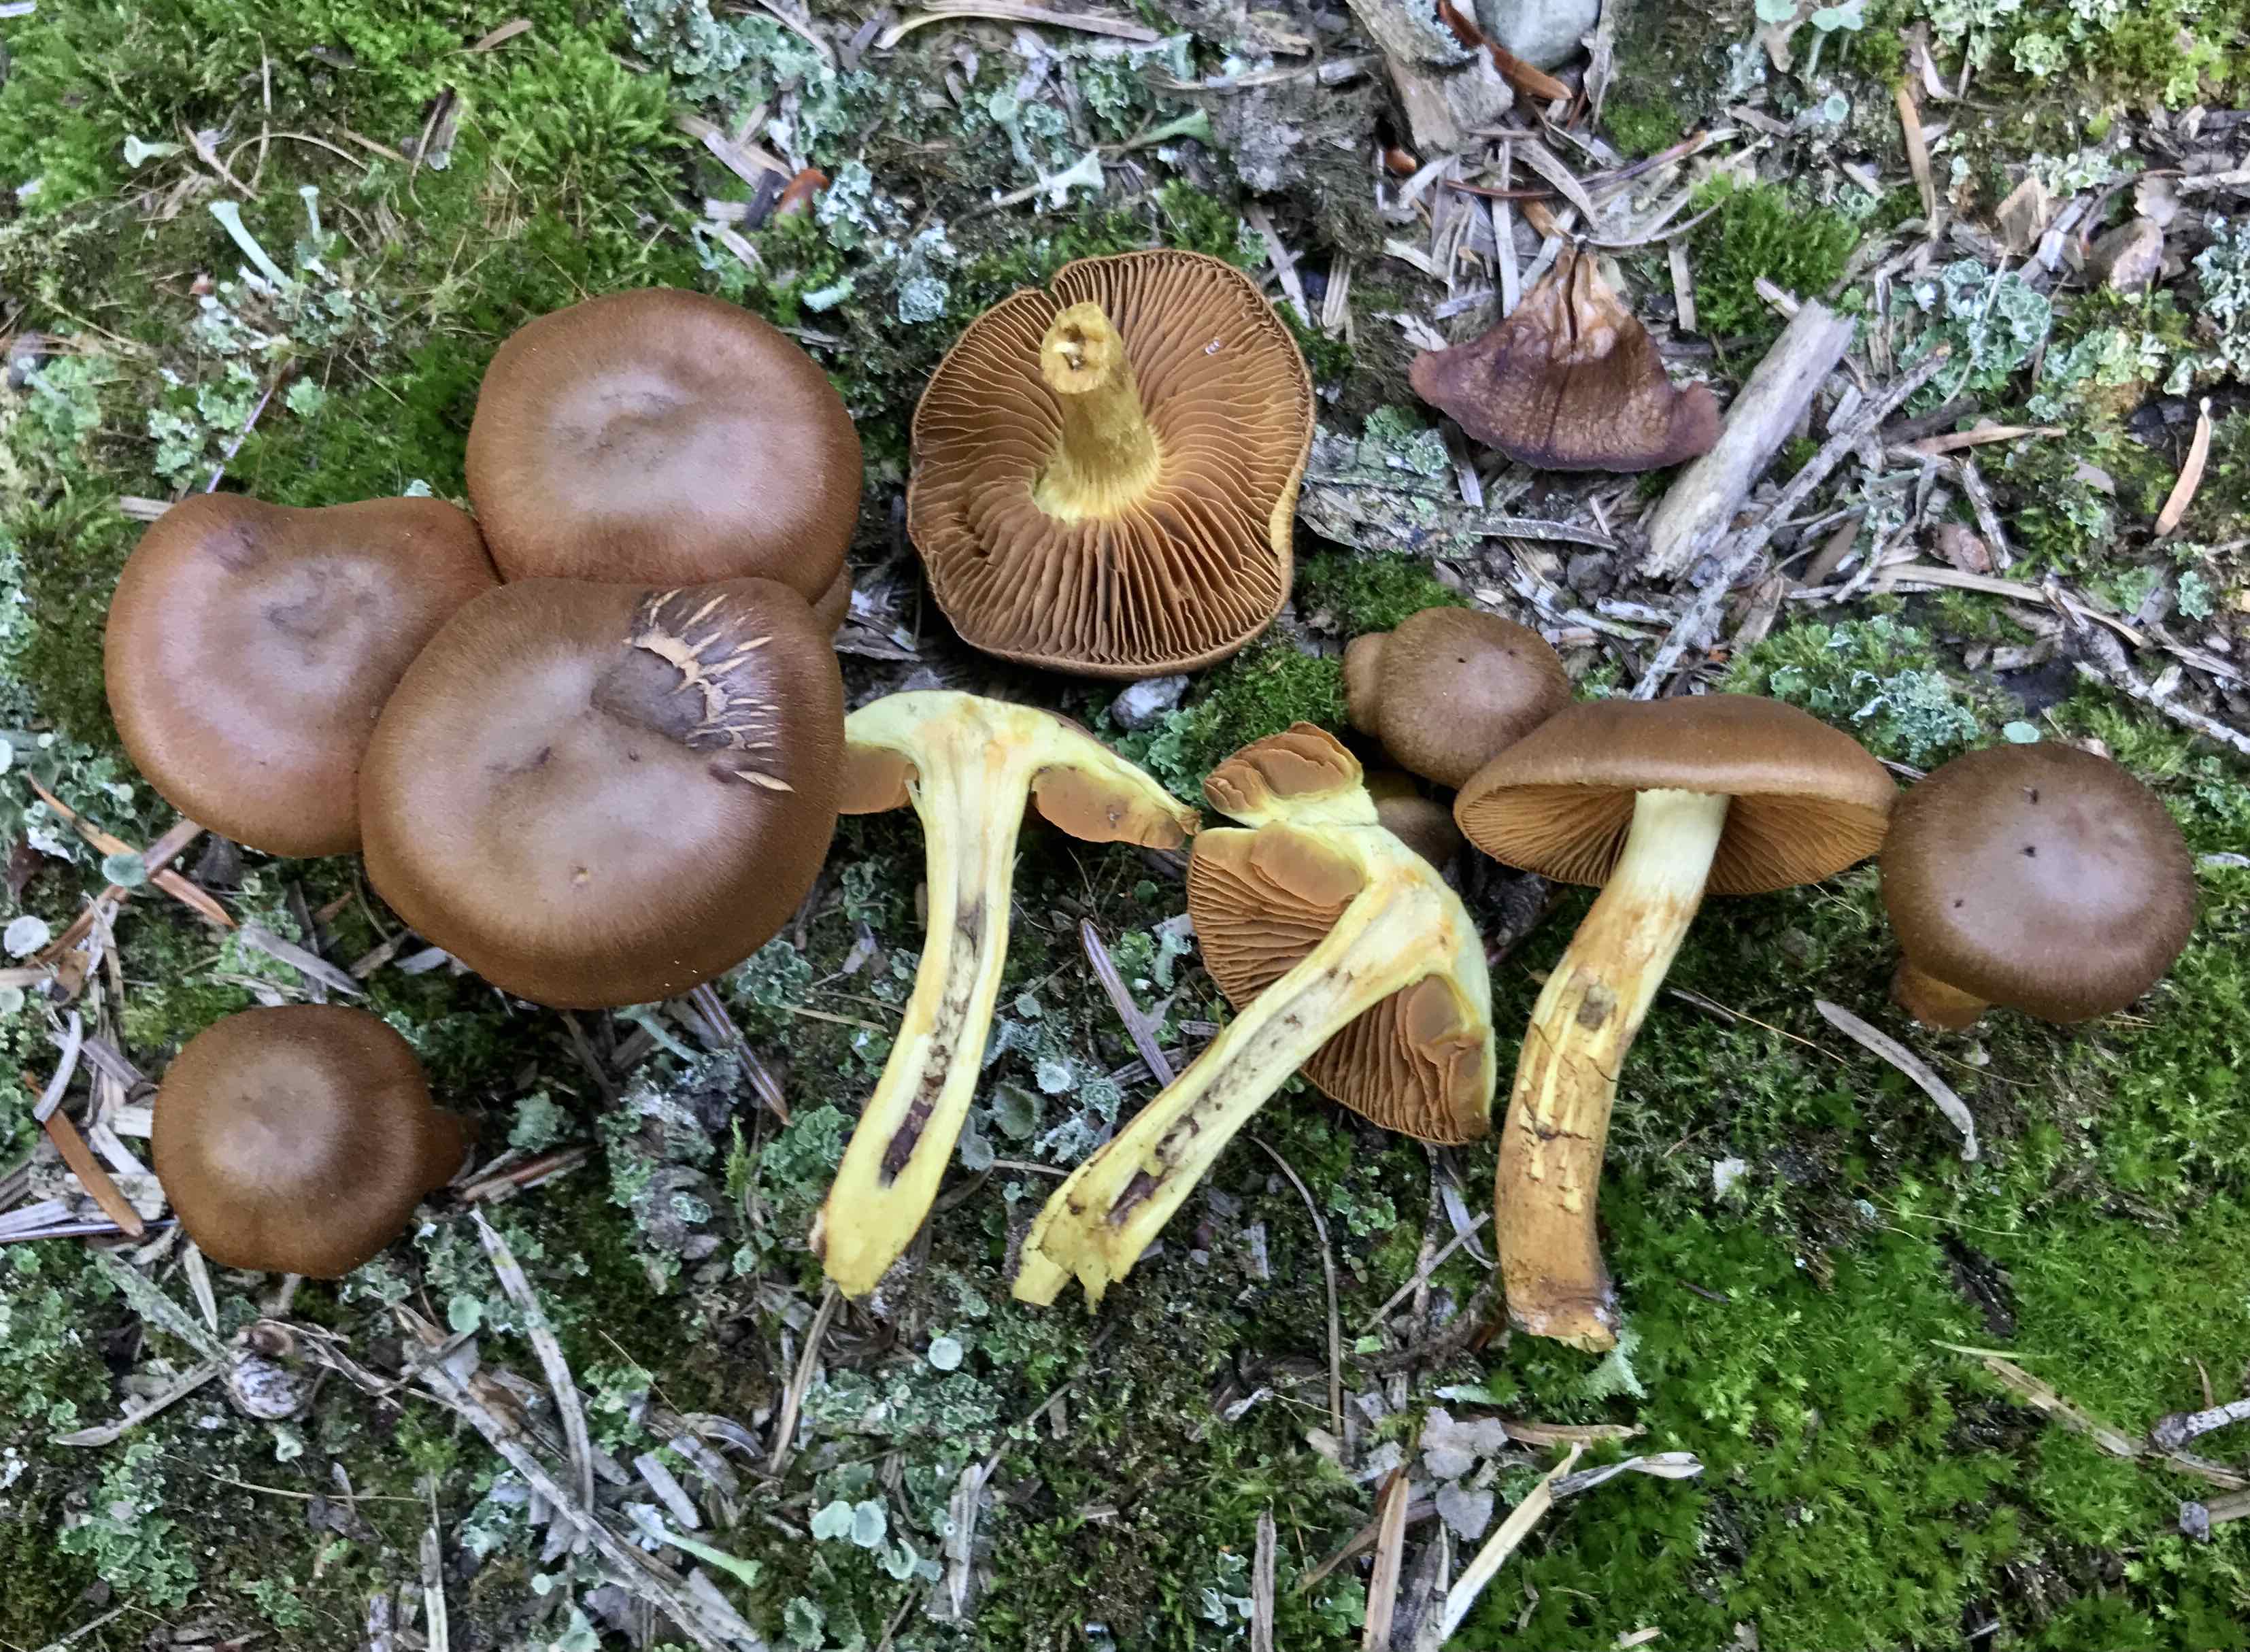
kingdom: Fungi
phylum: Basidiomycota
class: Agaricomycetes
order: Agaricales
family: Cortinariaceae
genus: Cortinarius
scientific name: Cortinarius malicorius
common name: grønkødet slørhat
